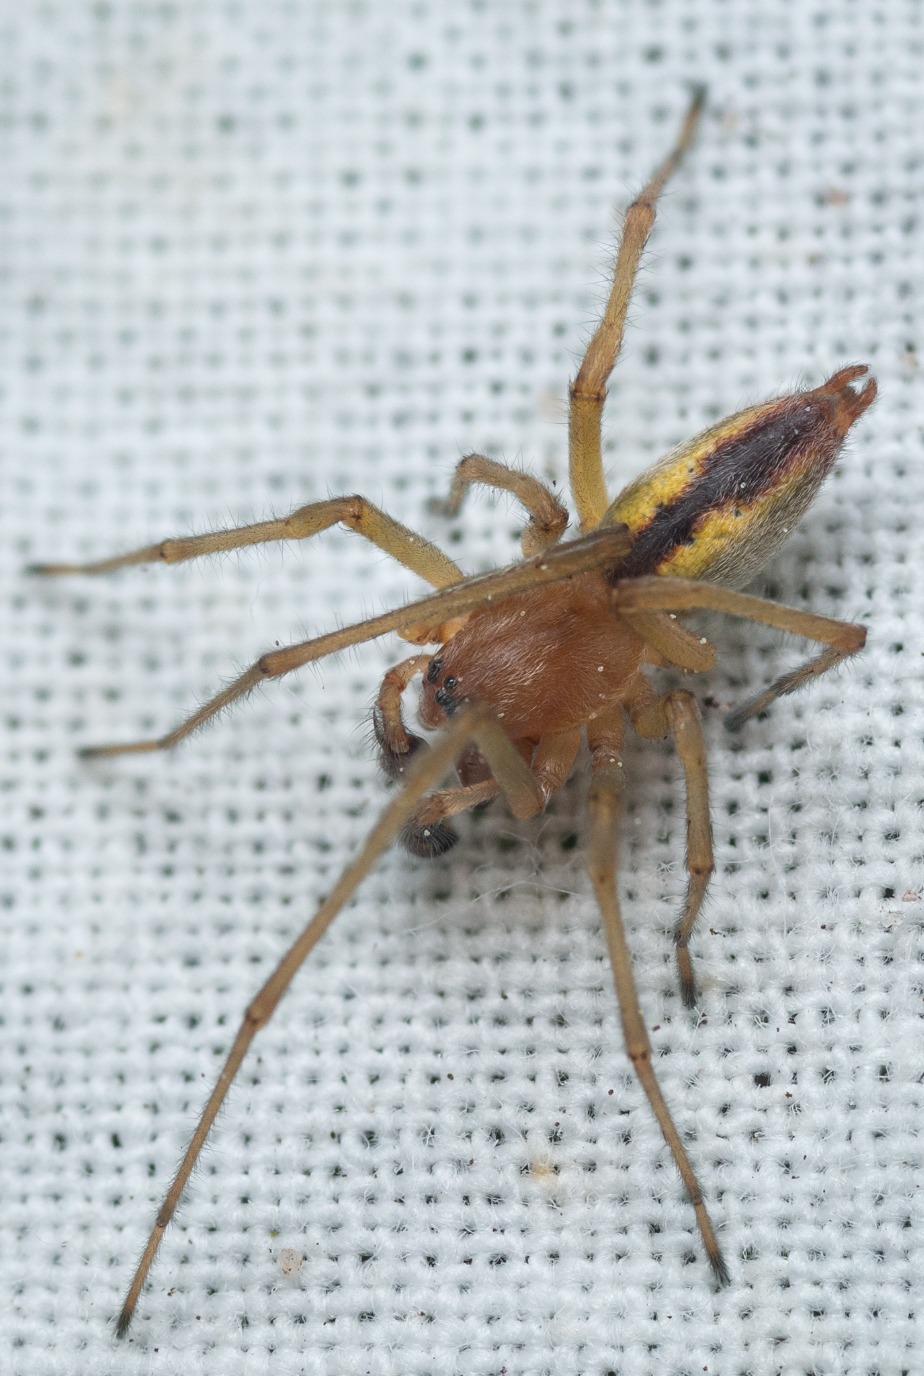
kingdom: Animalia
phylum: Arthropoda
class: Arachnida
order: Araneae
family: Cheiracanthiidae
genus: Cheiracanthium
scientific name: Cheiracanthium erraticum
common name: Almindelig pighånd
